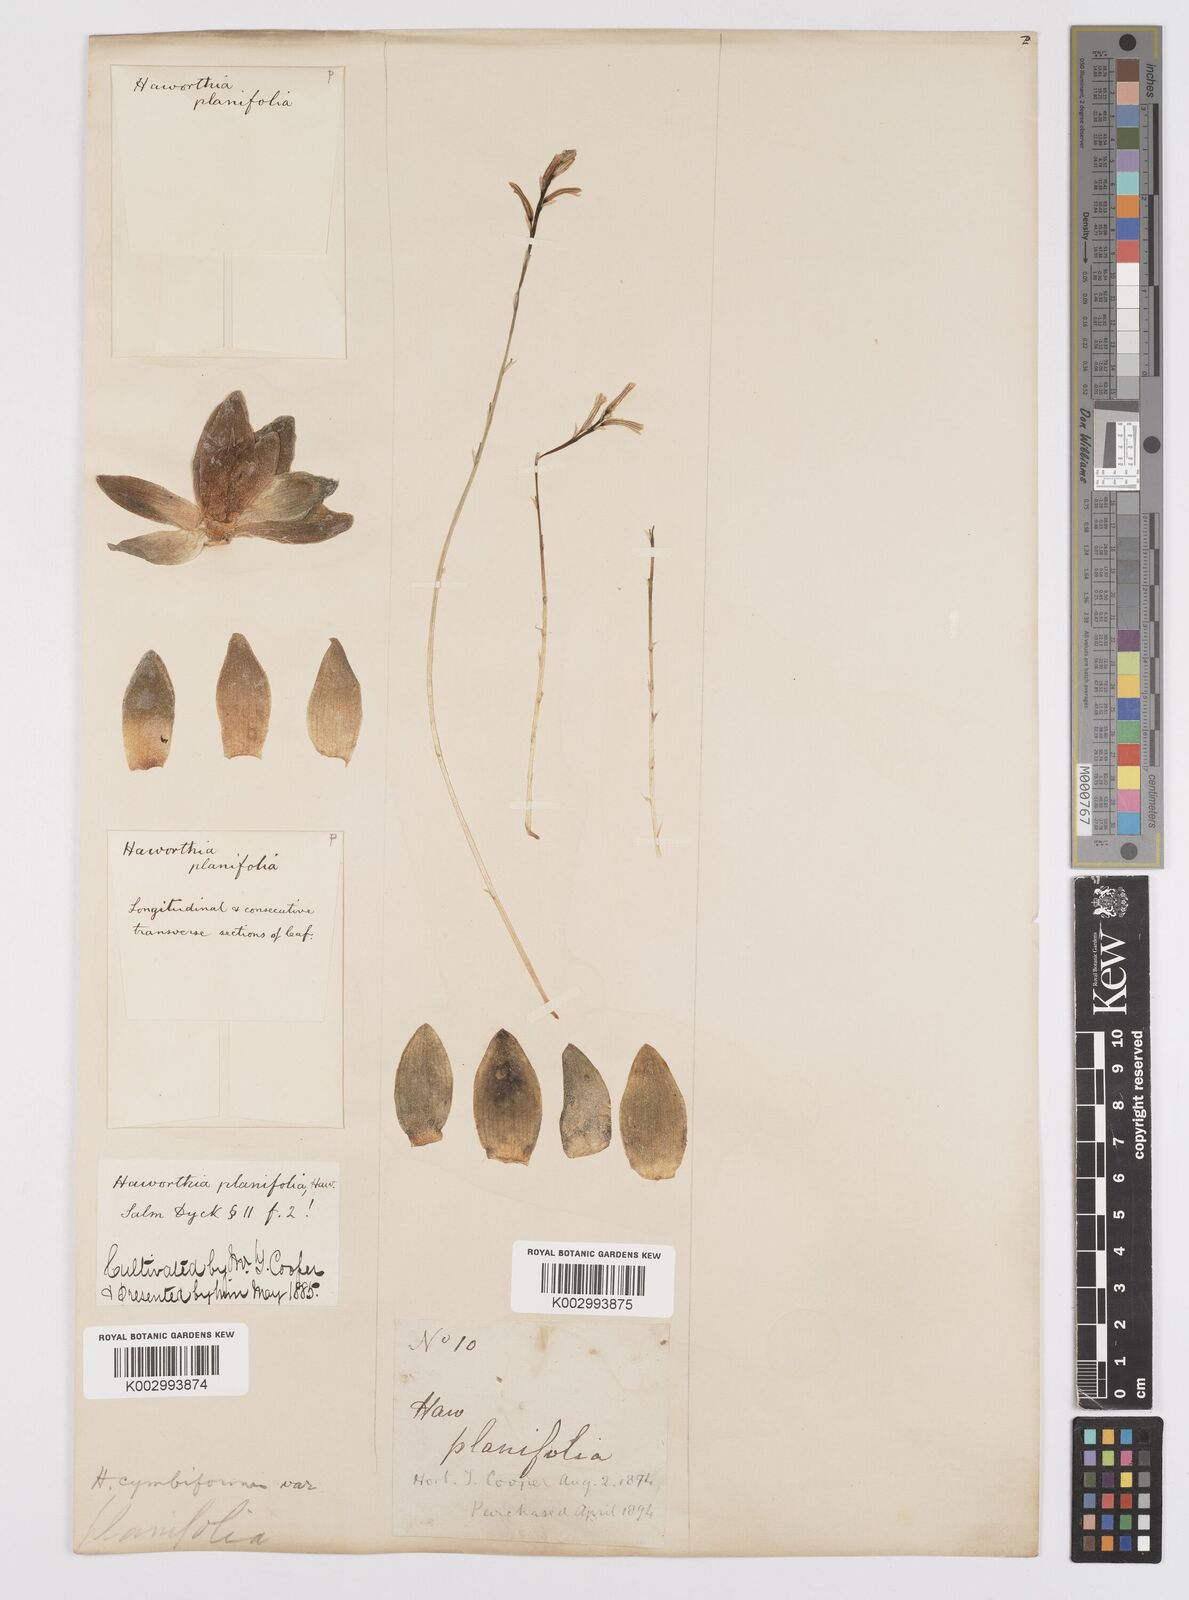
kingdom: Plantae
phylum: Tracheophyta
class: Liliopsida
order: Asparagales
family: Asphodelaceae
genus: Haworthia
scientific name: Haworthia cymbiformis
